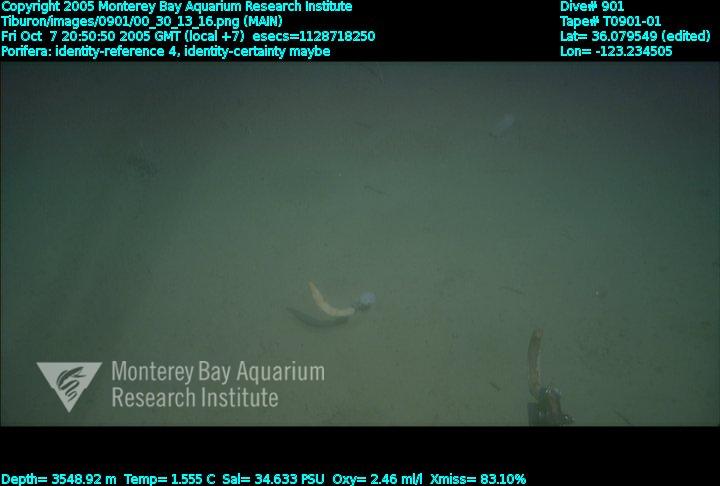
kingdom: Animalia
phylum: Porifera
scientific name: Porifera
